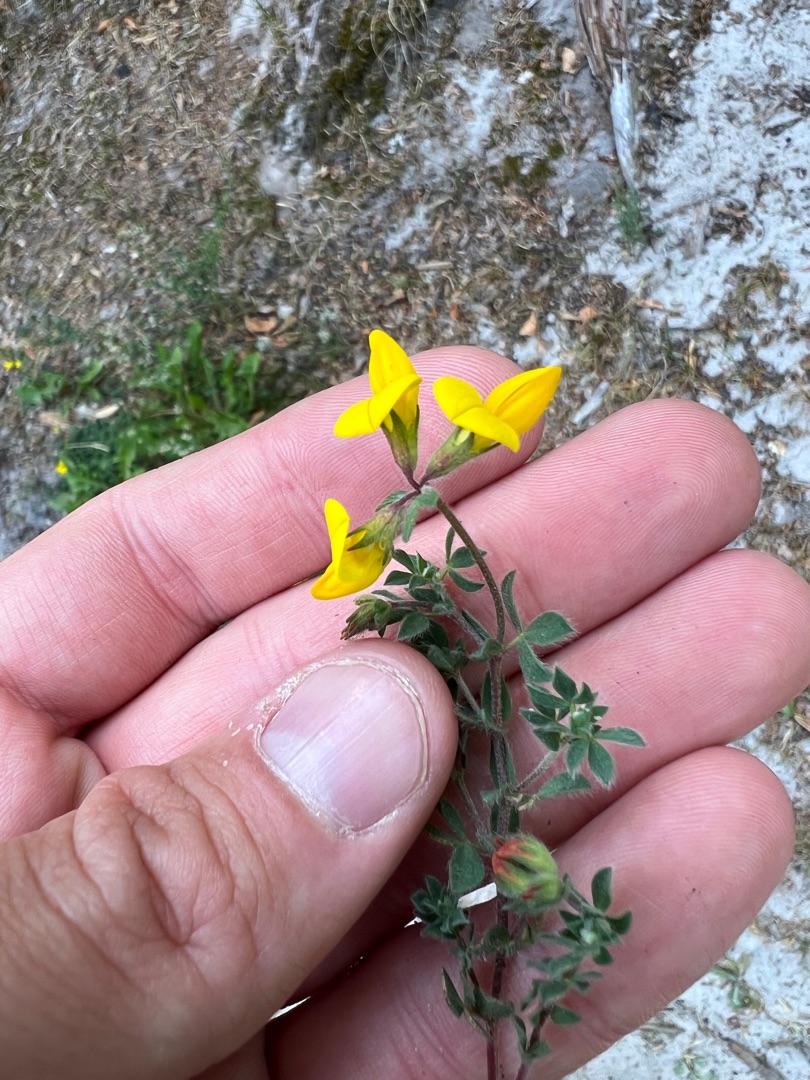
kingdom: Plantae
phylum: Tracheophyta
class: Magnoliopsida
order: Fabales
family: Fabaceae
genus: Lotus
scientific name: Lotus corniculatus
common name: Almindelig kællingetand
